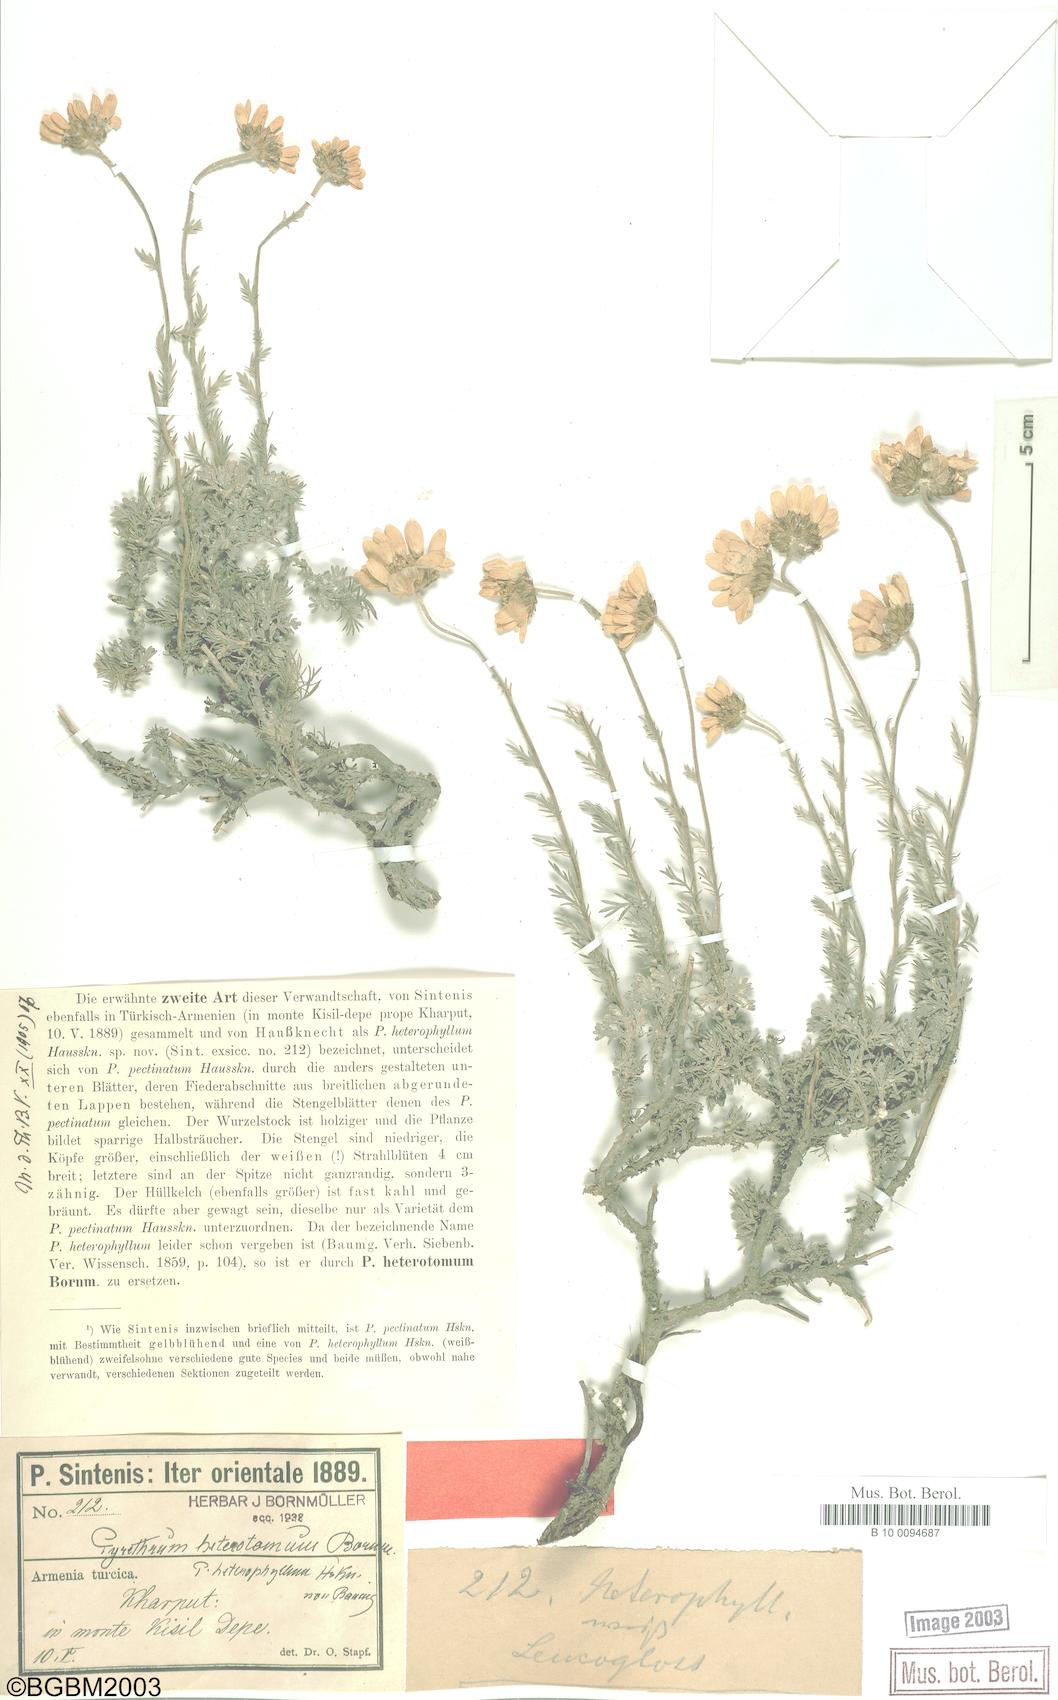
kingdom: Plantae
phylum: Tracheophyta
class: Magnoliopsida
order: Asterales
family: Asteraceae
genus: Tanacetum
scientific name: Tanacetum heterotomum
